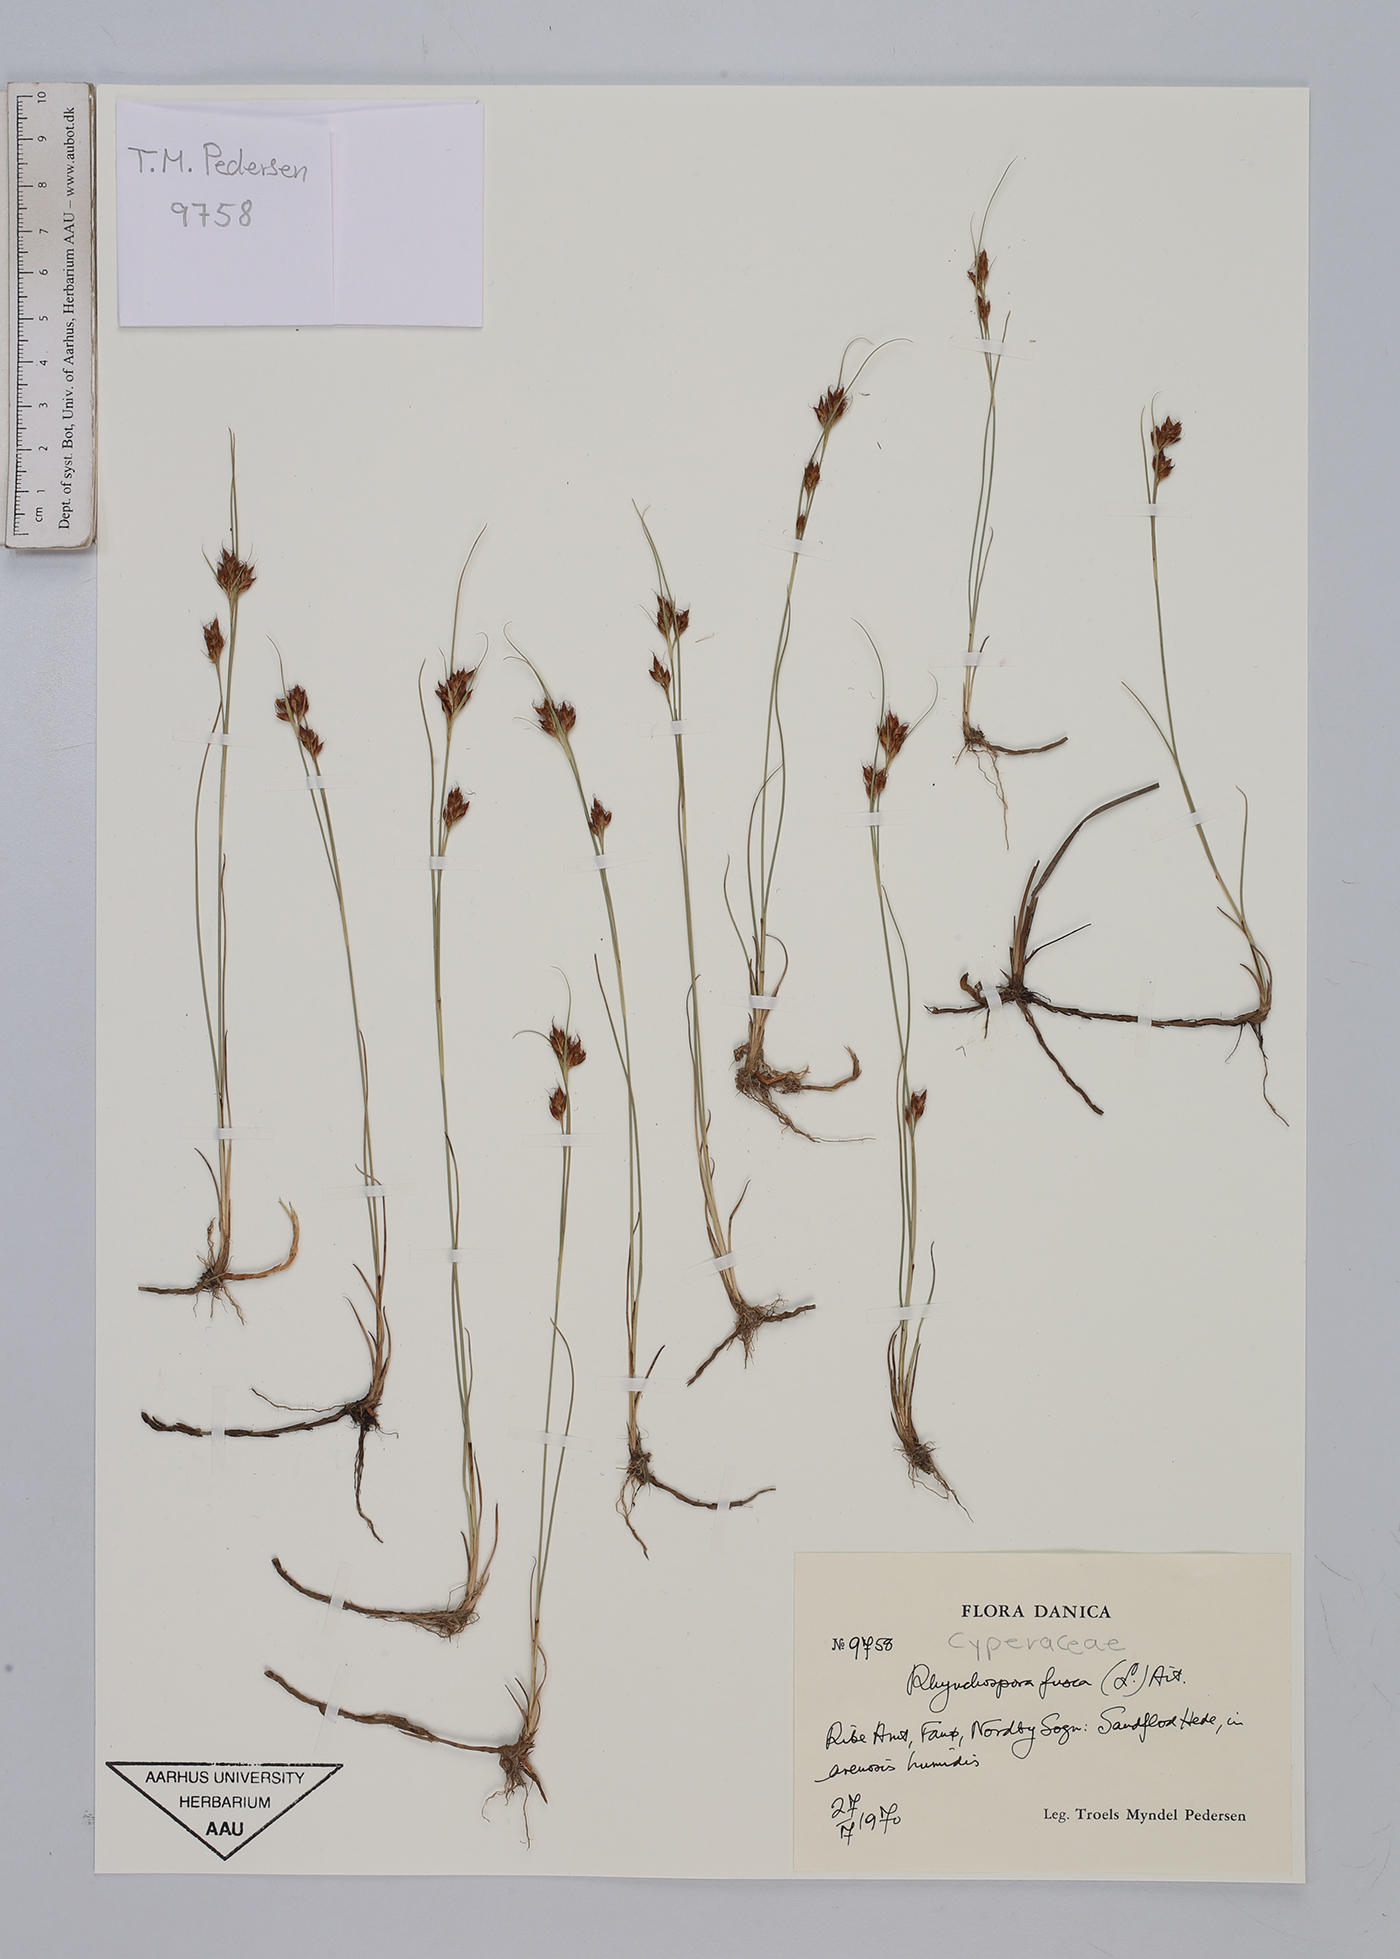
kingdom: Plantae
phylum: Tracheophyta
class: Liliopsida
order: Poales
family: Cyperaceae
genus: Rhynchospora
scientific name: Rhynchospora fusca
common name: Brown beak-sedge
